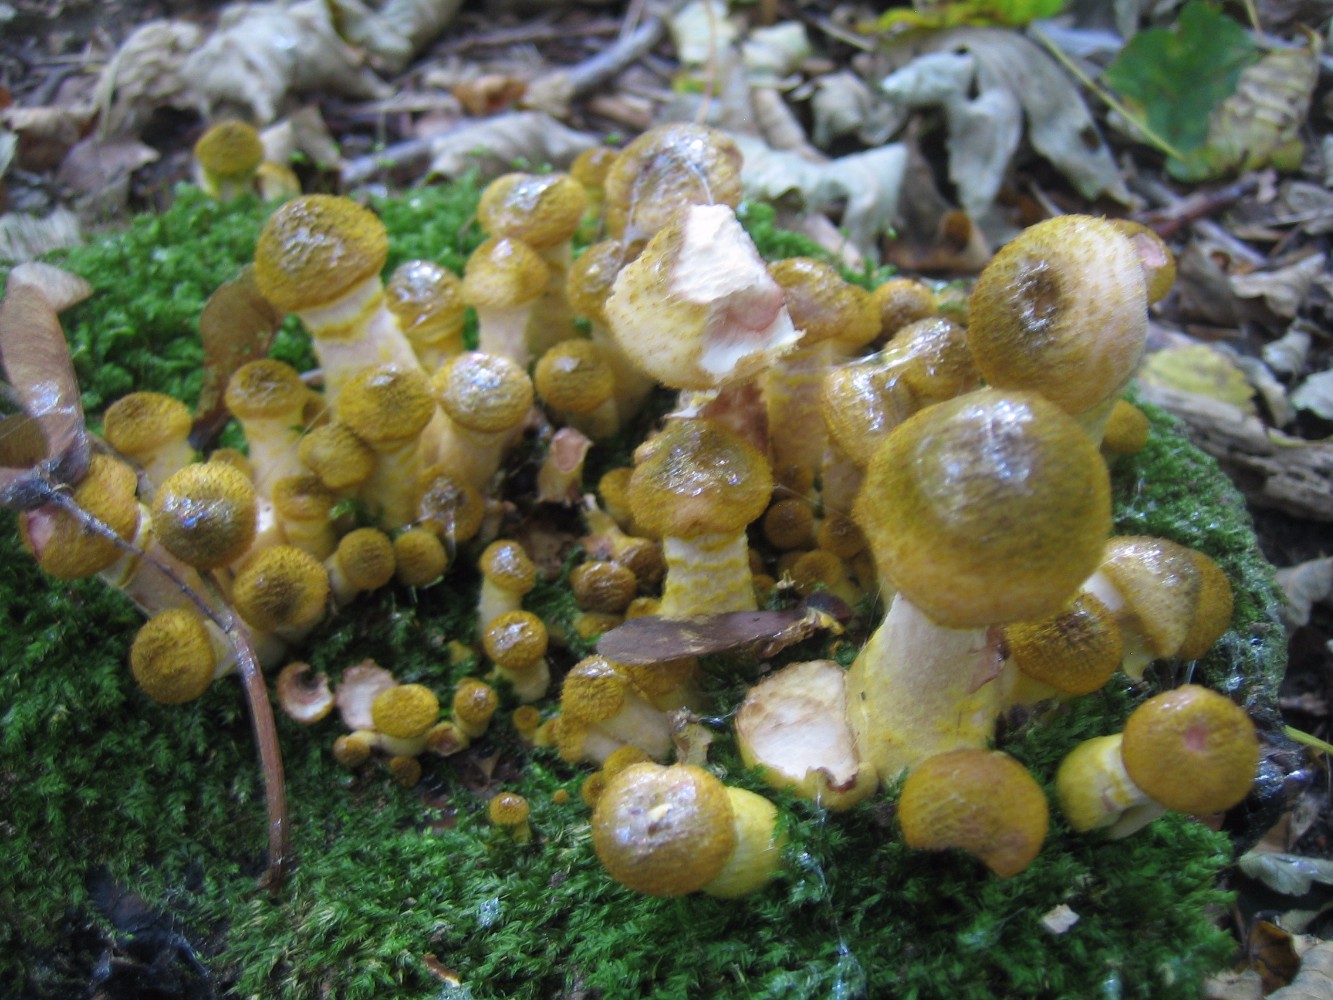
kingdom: Fungi
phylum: Basidiomycota
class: Agaricomycetes
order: Agaricales
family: Physalacriaceae
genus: Armillaria
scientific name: Armillaria lutea
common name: køllestokket honningsvamp
